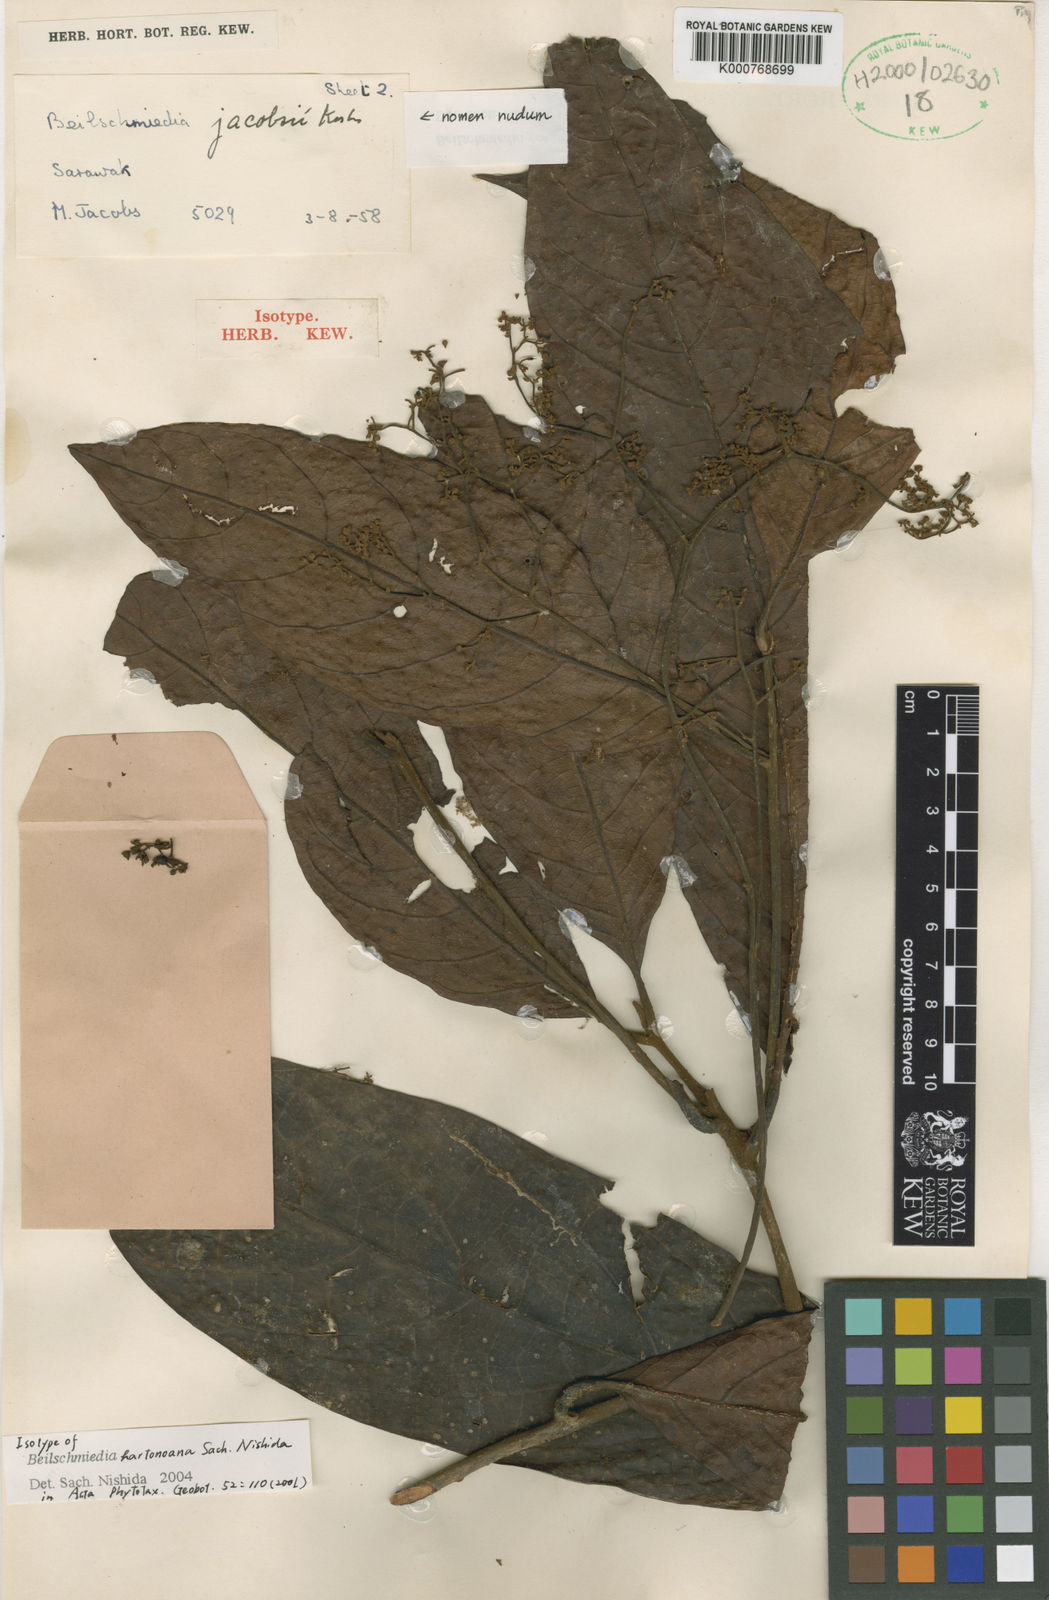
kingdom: Plantae
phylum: Tracheophyta
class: Magnoliopsida
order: Laurales
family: Lauraceae
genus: Beilschmiedia
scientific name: Beilschmiedia
